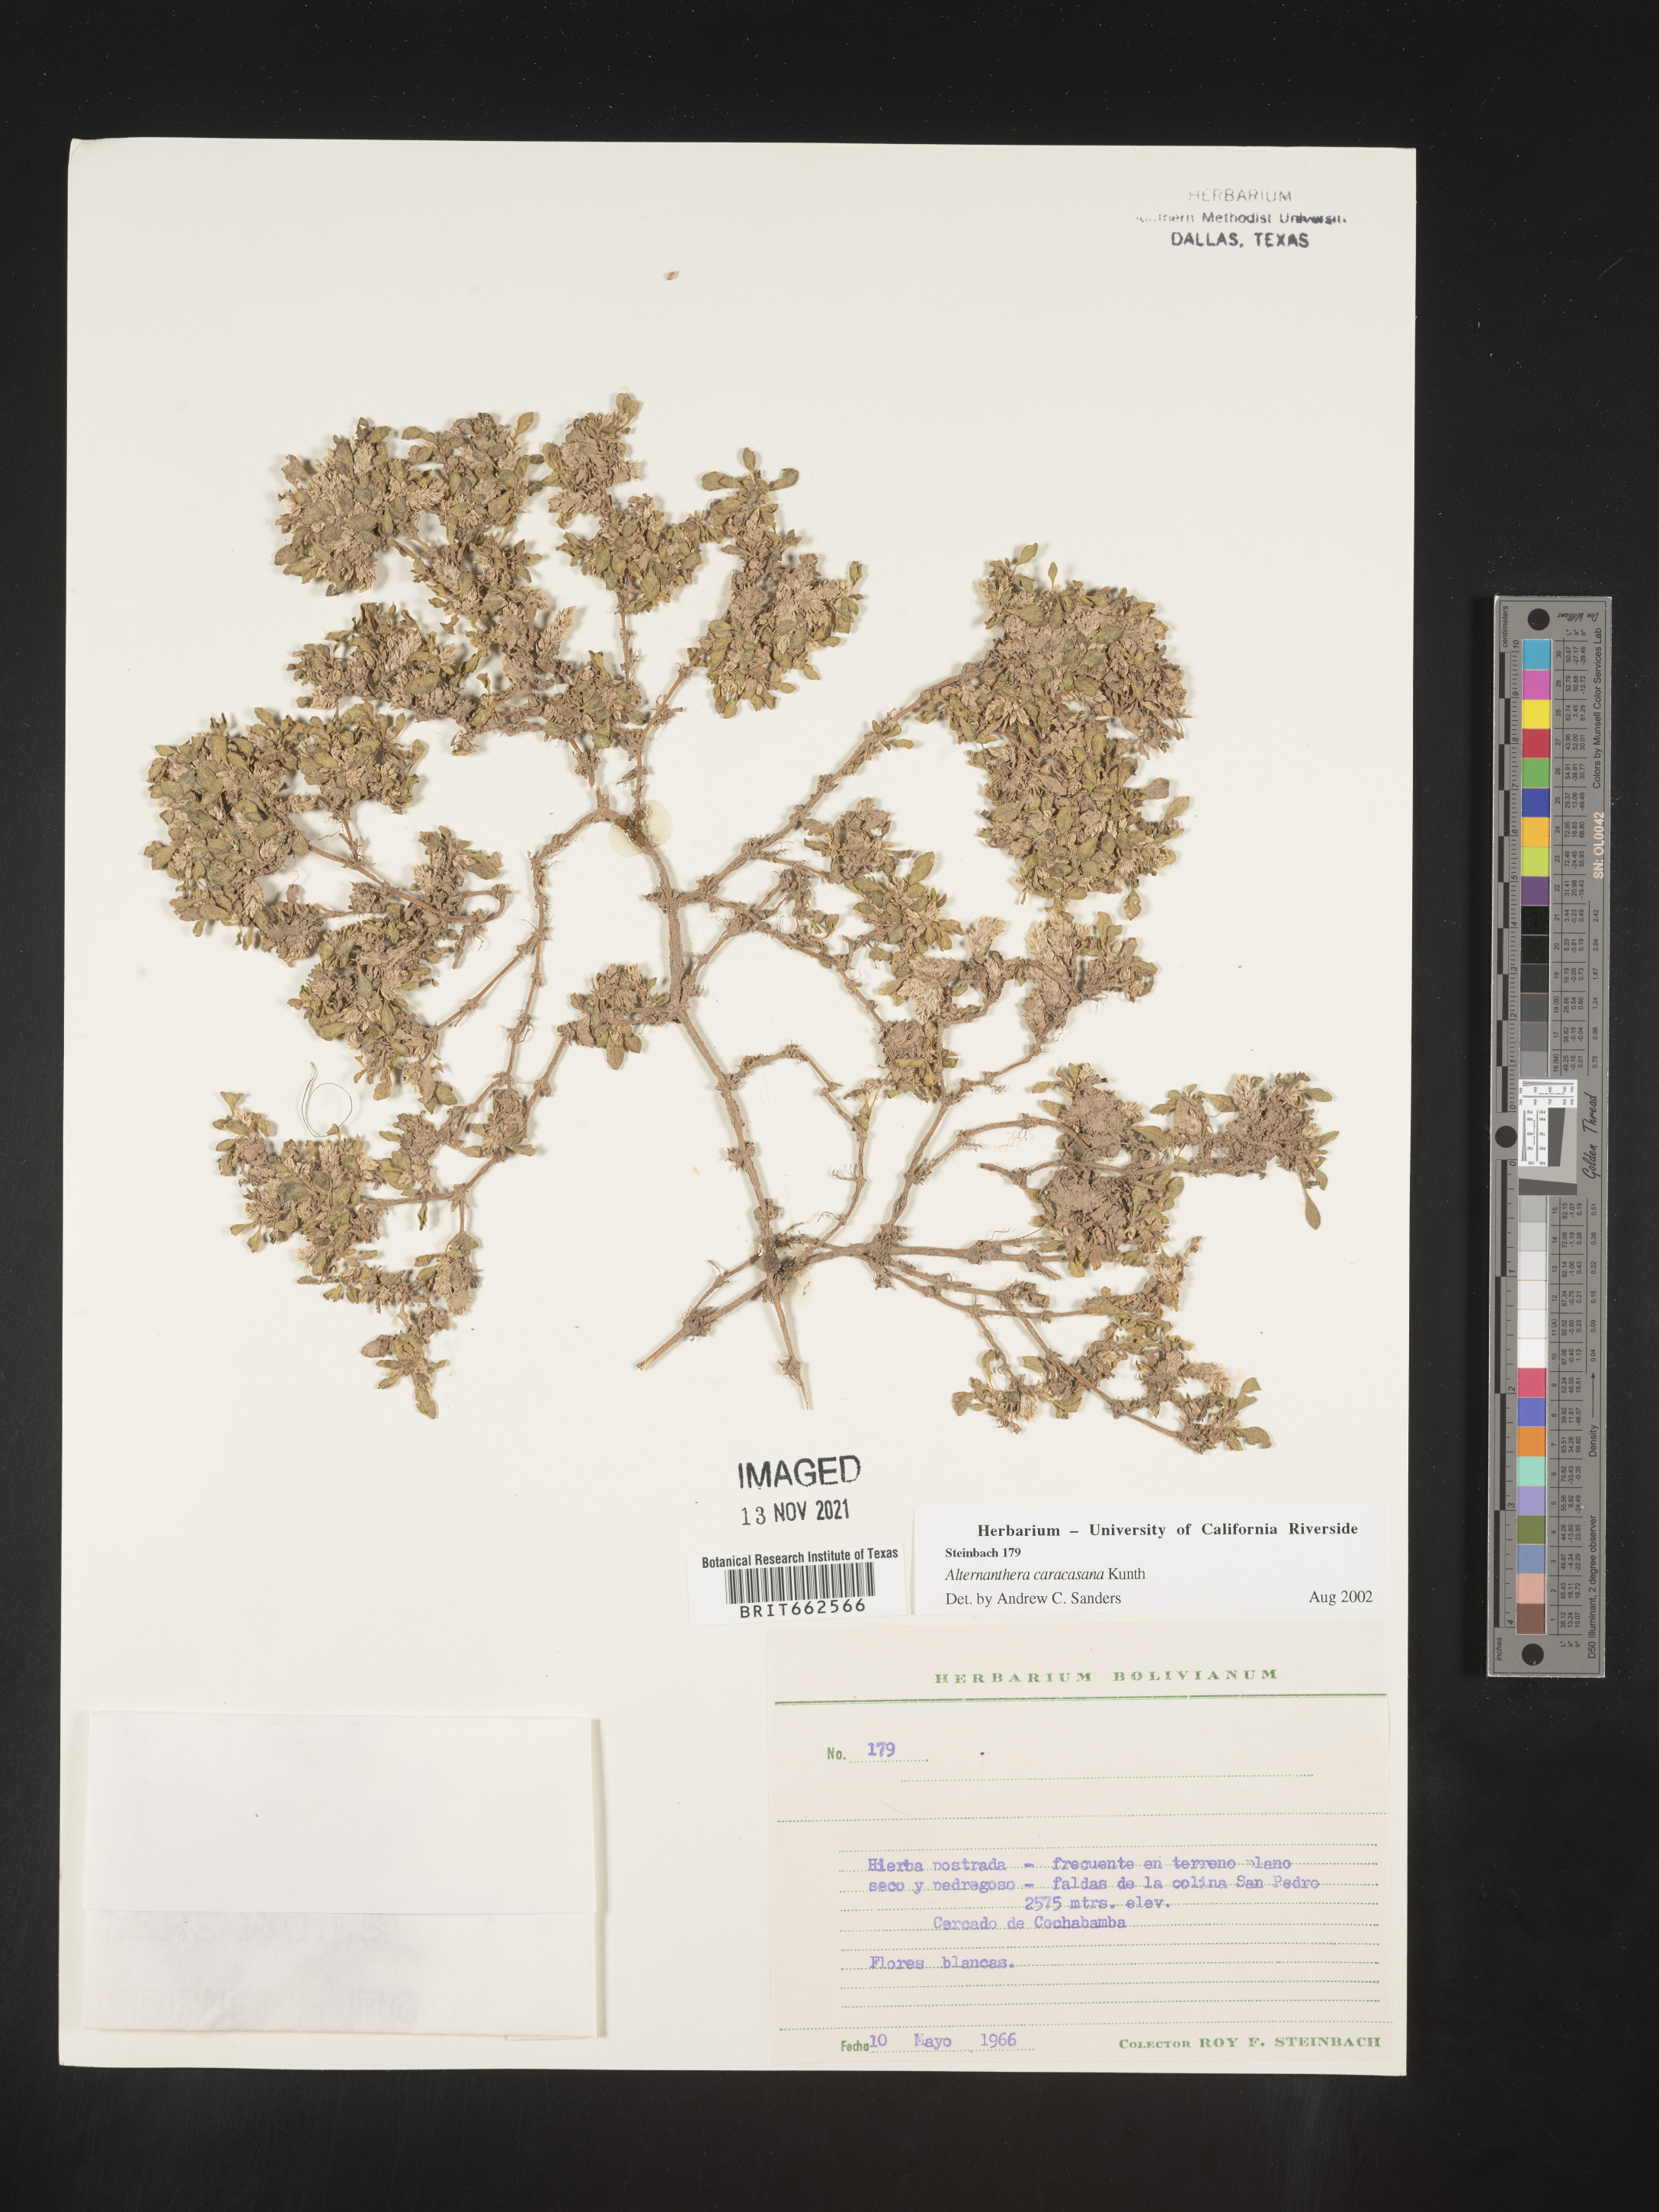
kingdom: Plantae
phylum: Tracheophyta
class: Magnoliopsida
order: Caryophyllales
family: Amaranthaceae
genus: Alternanthera
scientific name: Alternanthera
